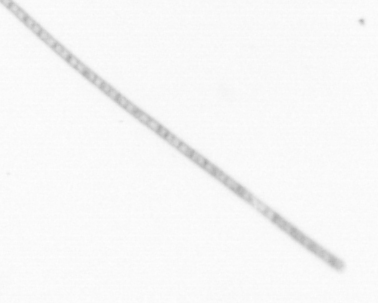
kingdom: Chromista
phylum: Ochrophyta
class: Bacillariophyceae
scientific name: Bacillariophyceae
